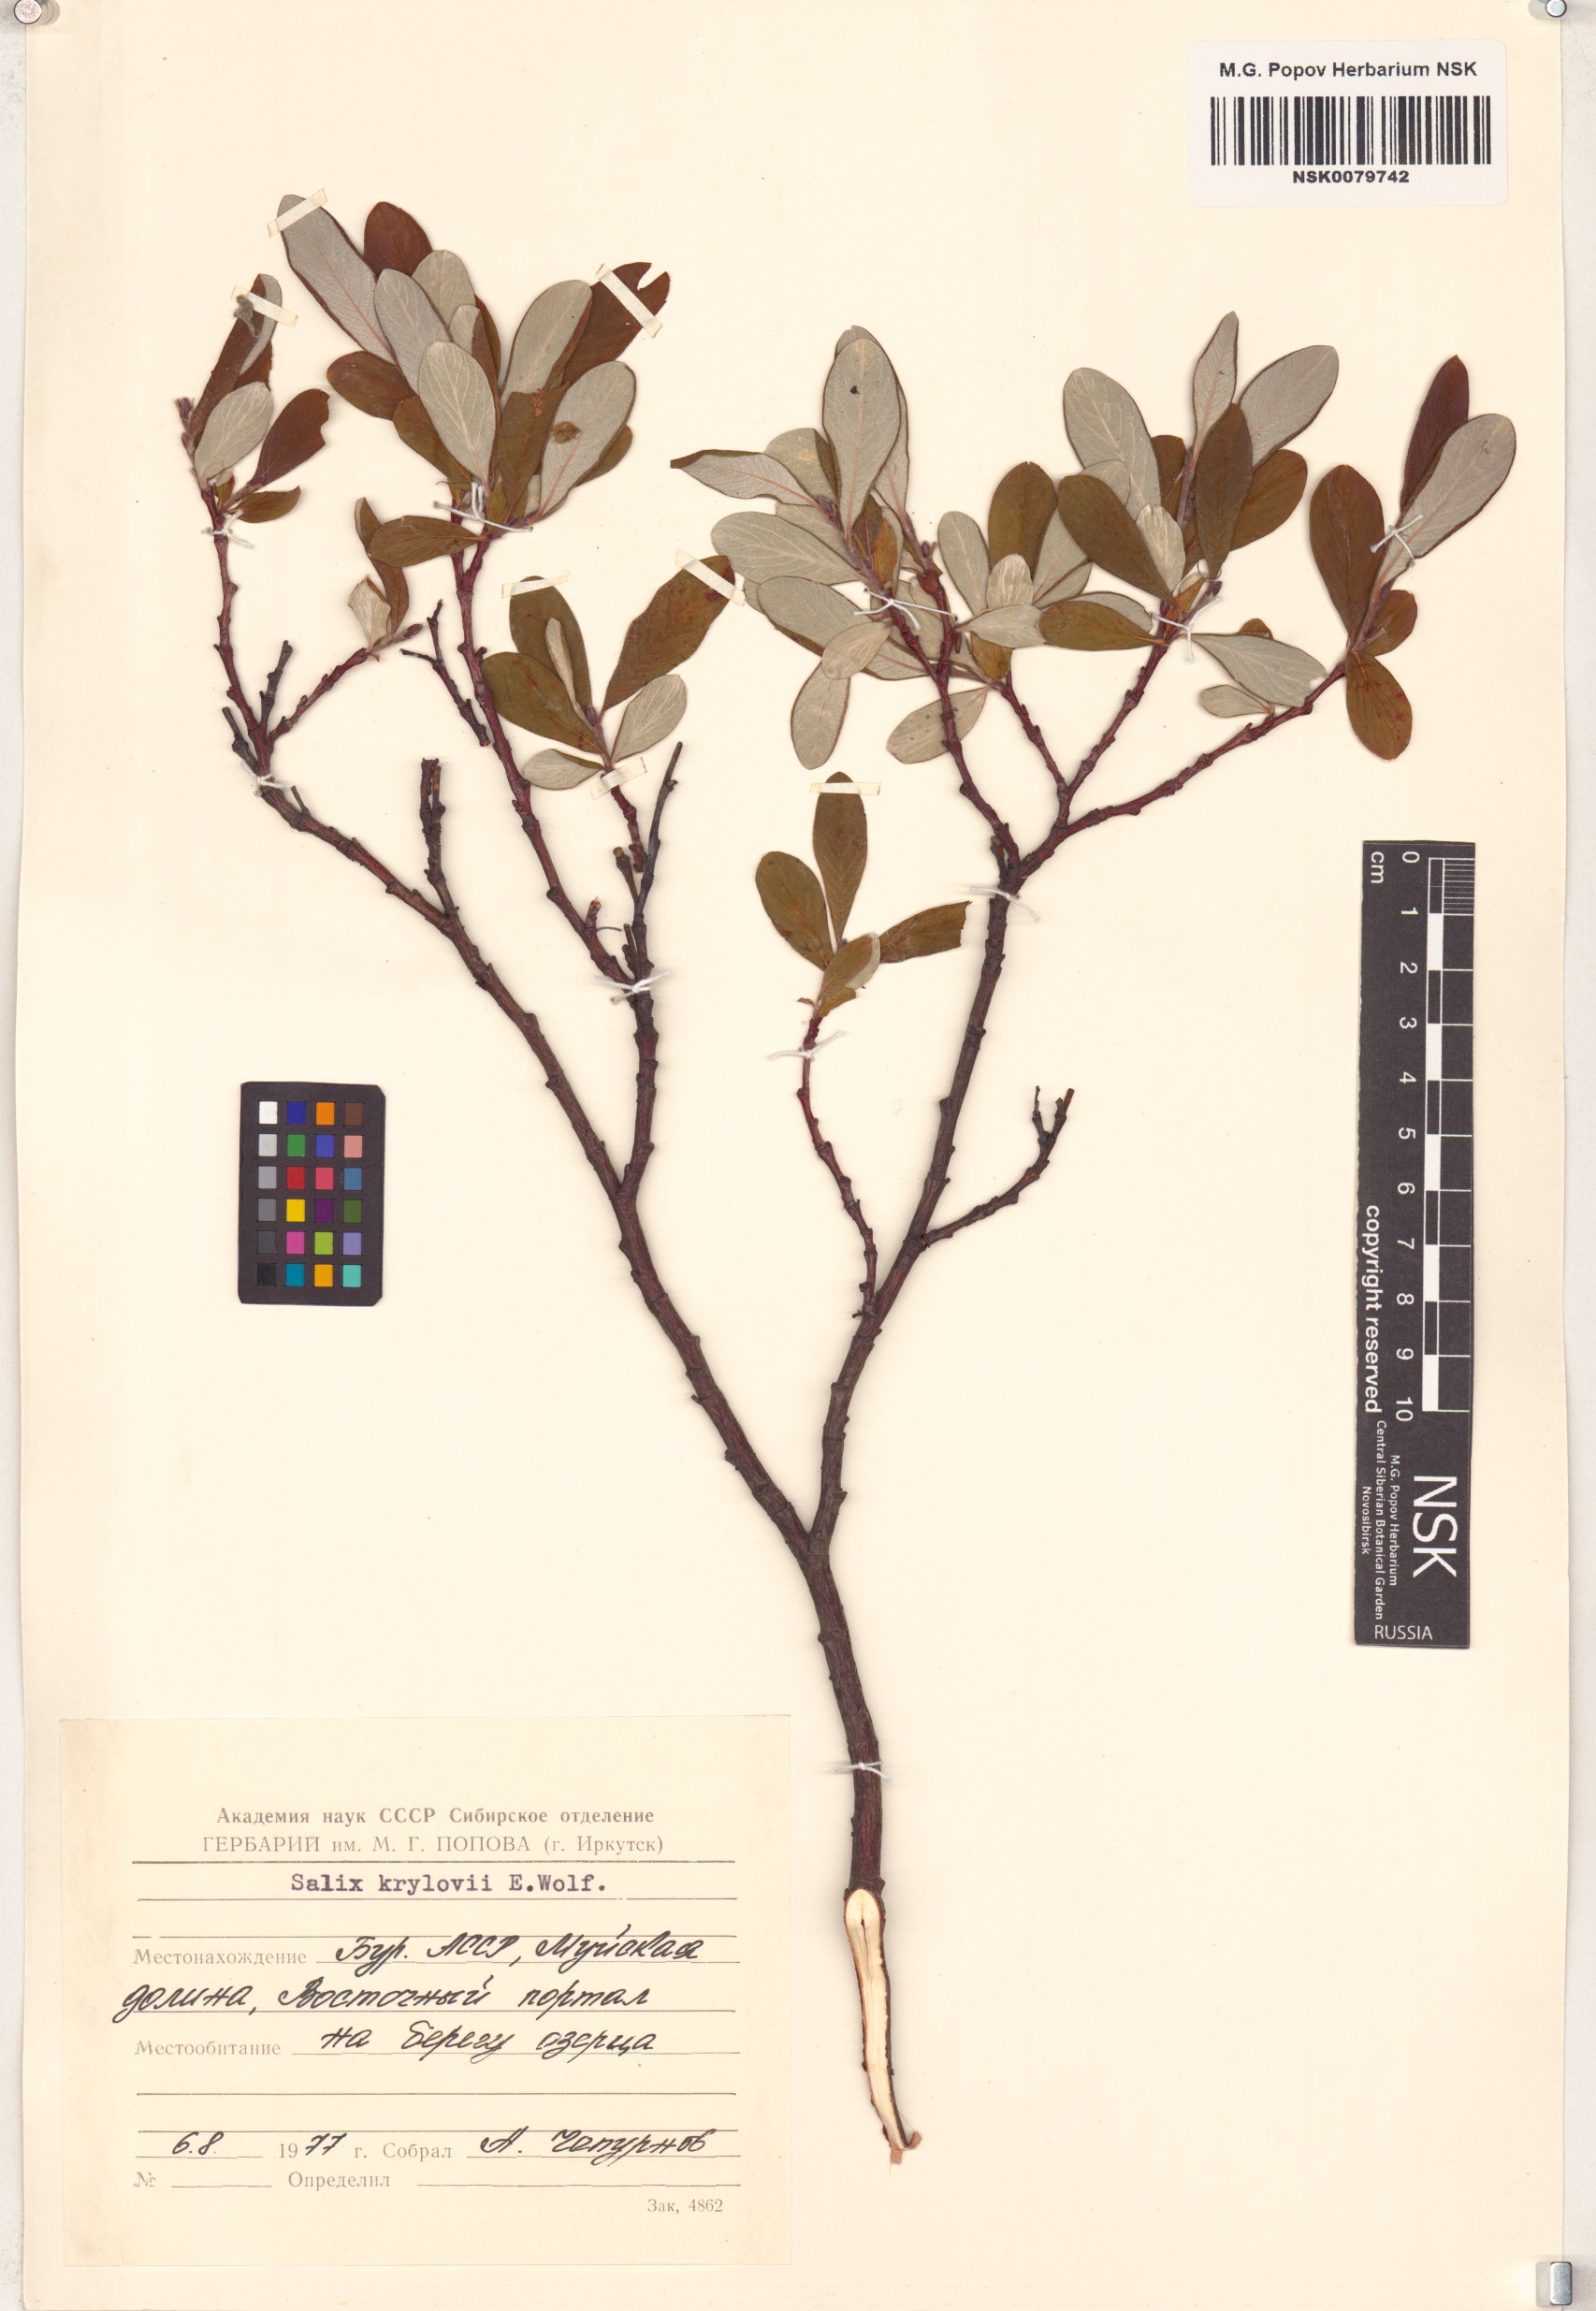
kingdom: Plantae
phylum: Tracheophyta
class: Magnoliopsida
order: Malpighiales
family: Salicaceae
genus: Salix
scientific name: Salix krylovii
